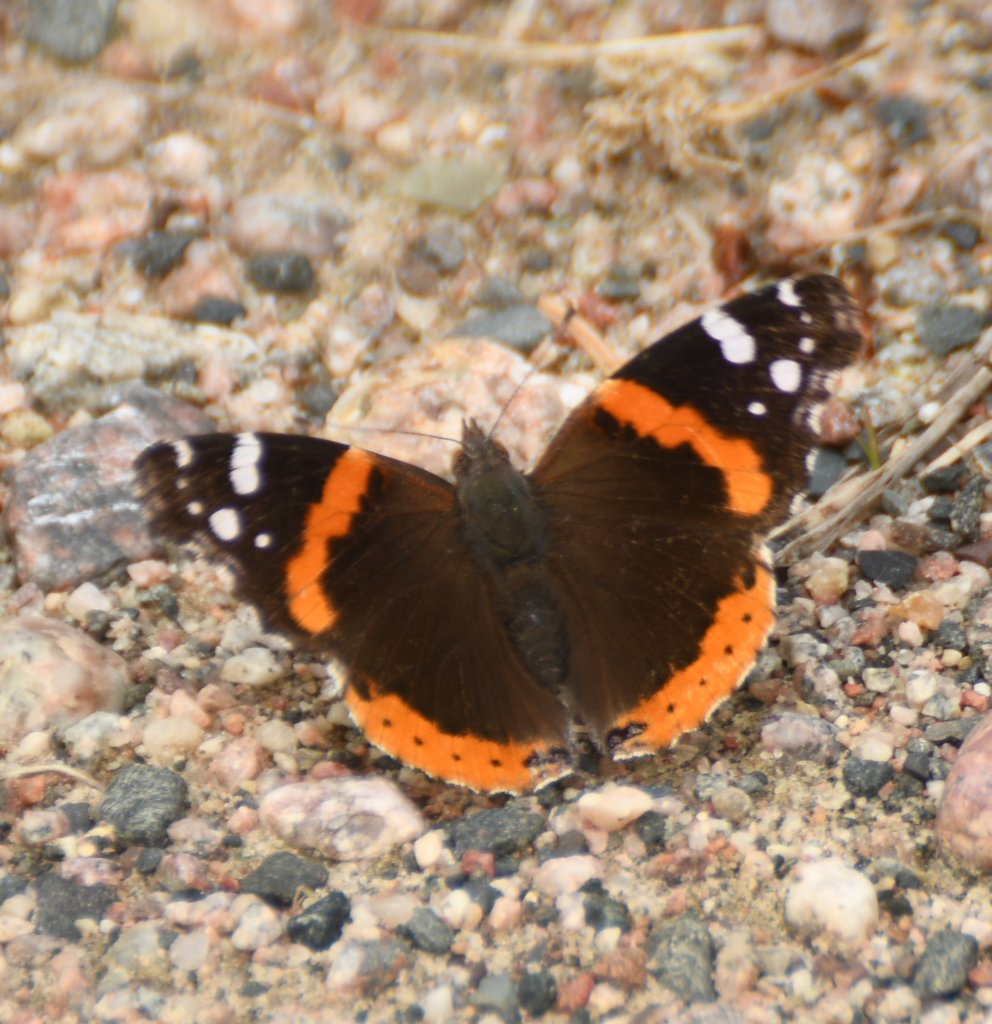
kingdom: Animalia
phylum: Arthropoda
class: Insecta
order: Lepidoptera
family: Nymphalidae
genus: Vanessa
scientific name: Vanessa atalanta
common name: Red Admiral
